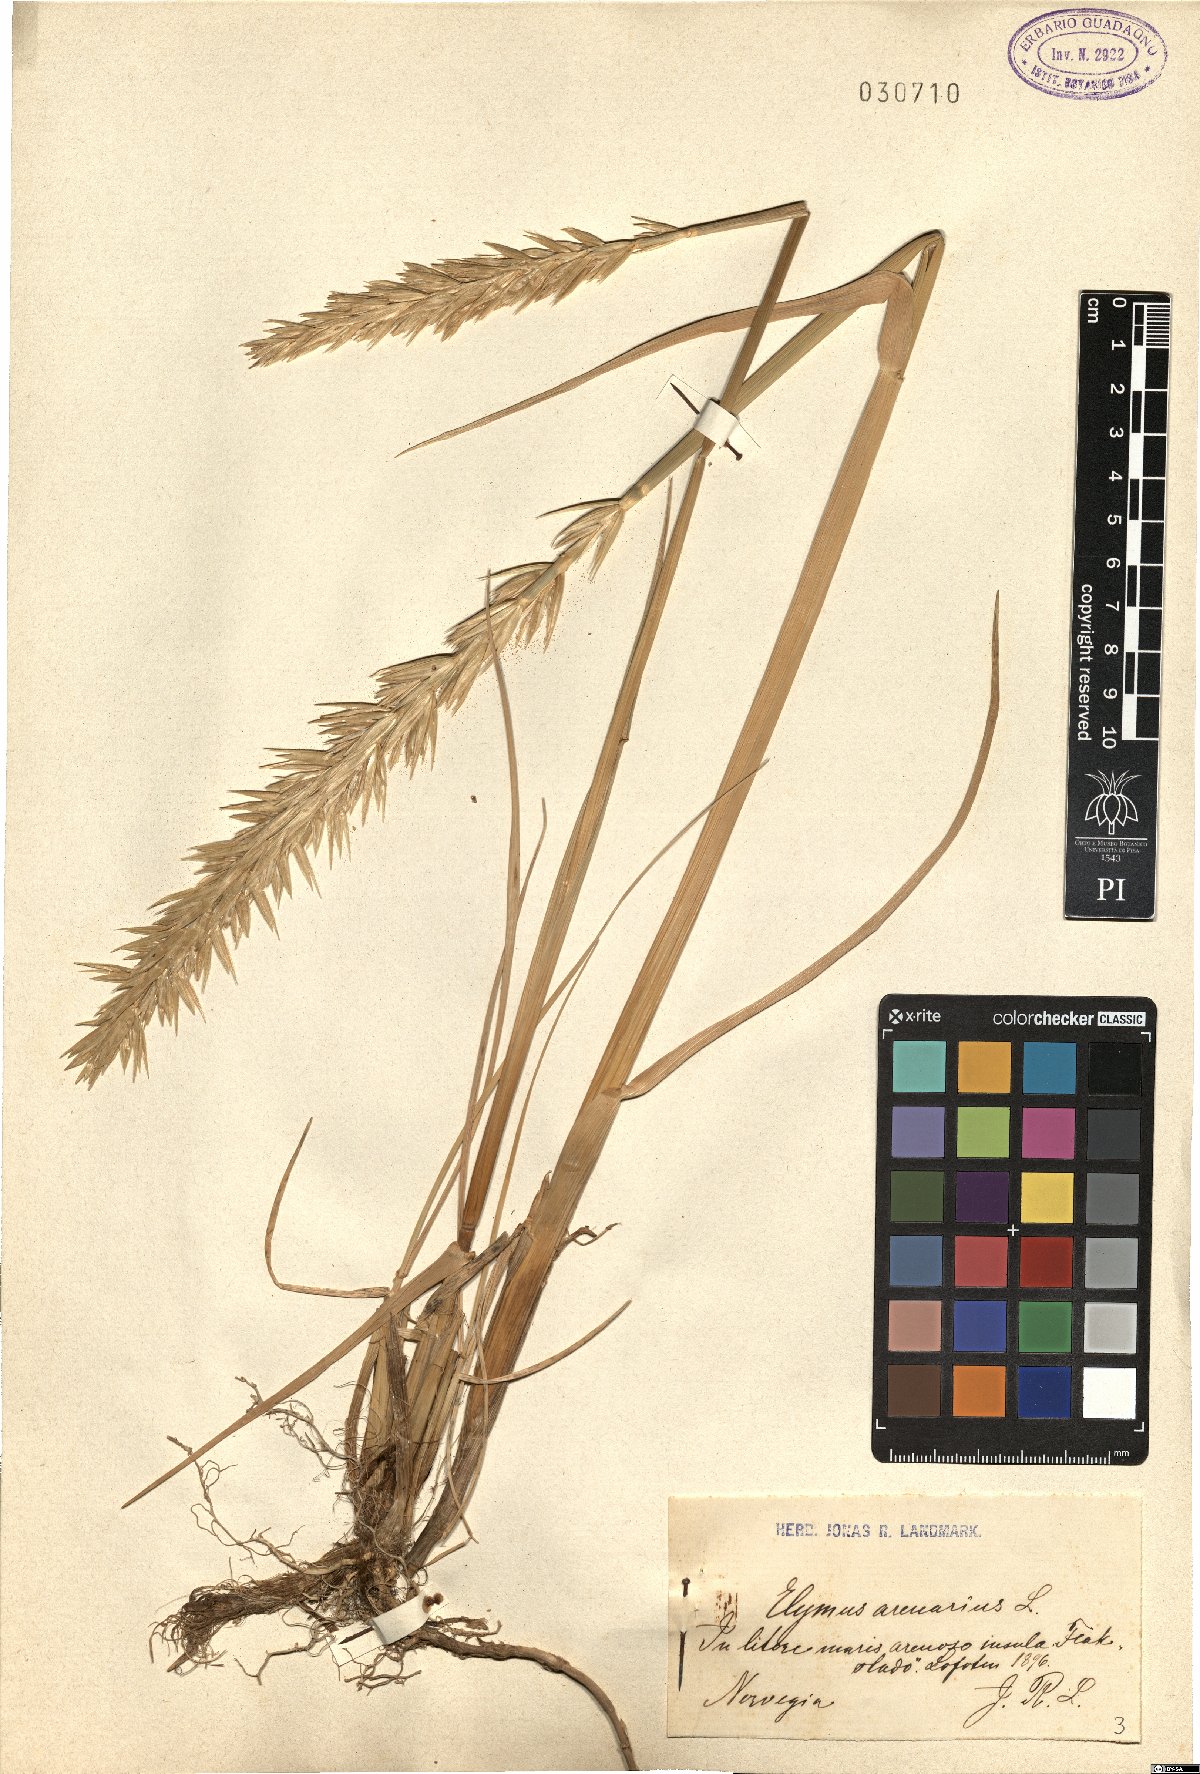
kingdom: Plantae
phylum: Tracheophyta
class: Liliopsida
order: Poales
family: Poaceae
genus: Leymus
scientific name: Leymus arenarius
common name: Lyme-grass
